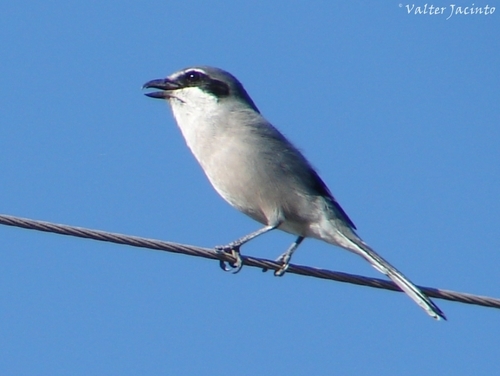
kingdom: Animalia
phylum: Chordata
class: Aves
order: Passeriformes
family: Laniidae
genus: Lanius
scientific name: Lanius meridionalis
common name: Iberian grey shrike
